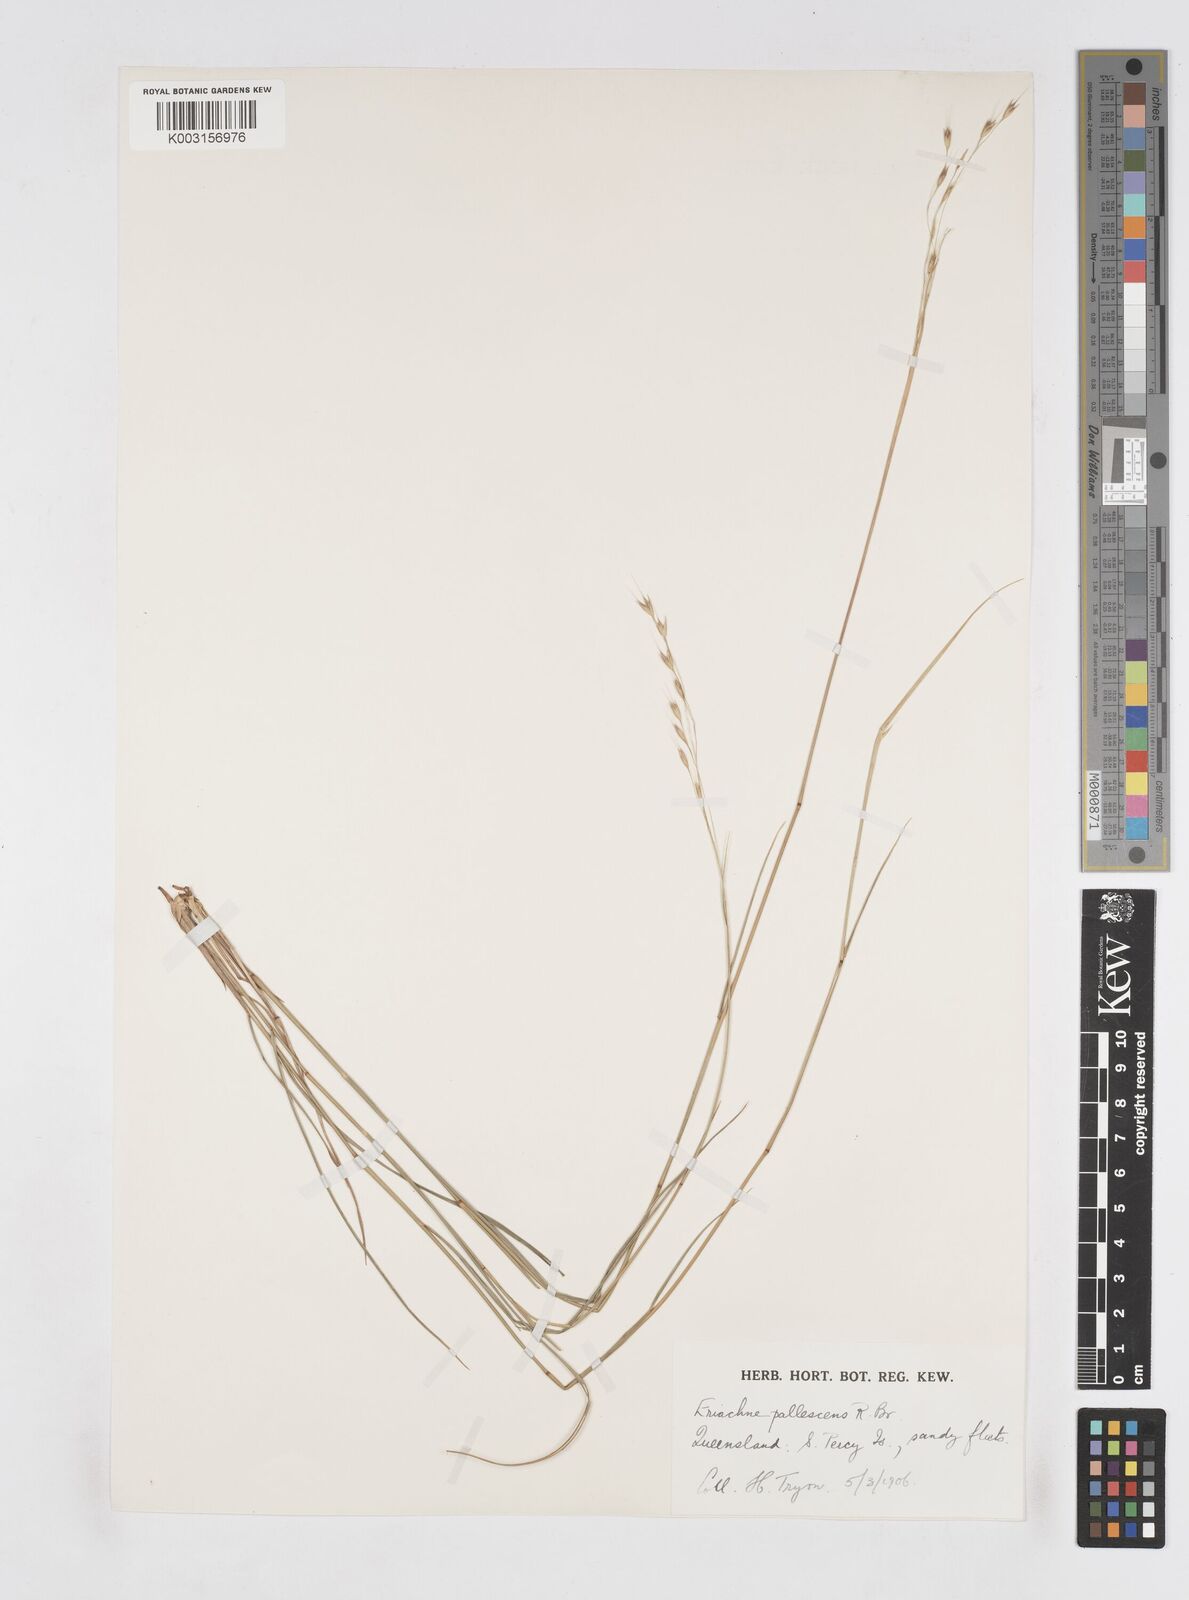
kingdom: Plantae
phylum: Tracheophyta
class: Liliopsida
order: Poales
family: Poaceae
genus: Eriachne
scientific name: Eriachne pallescens
